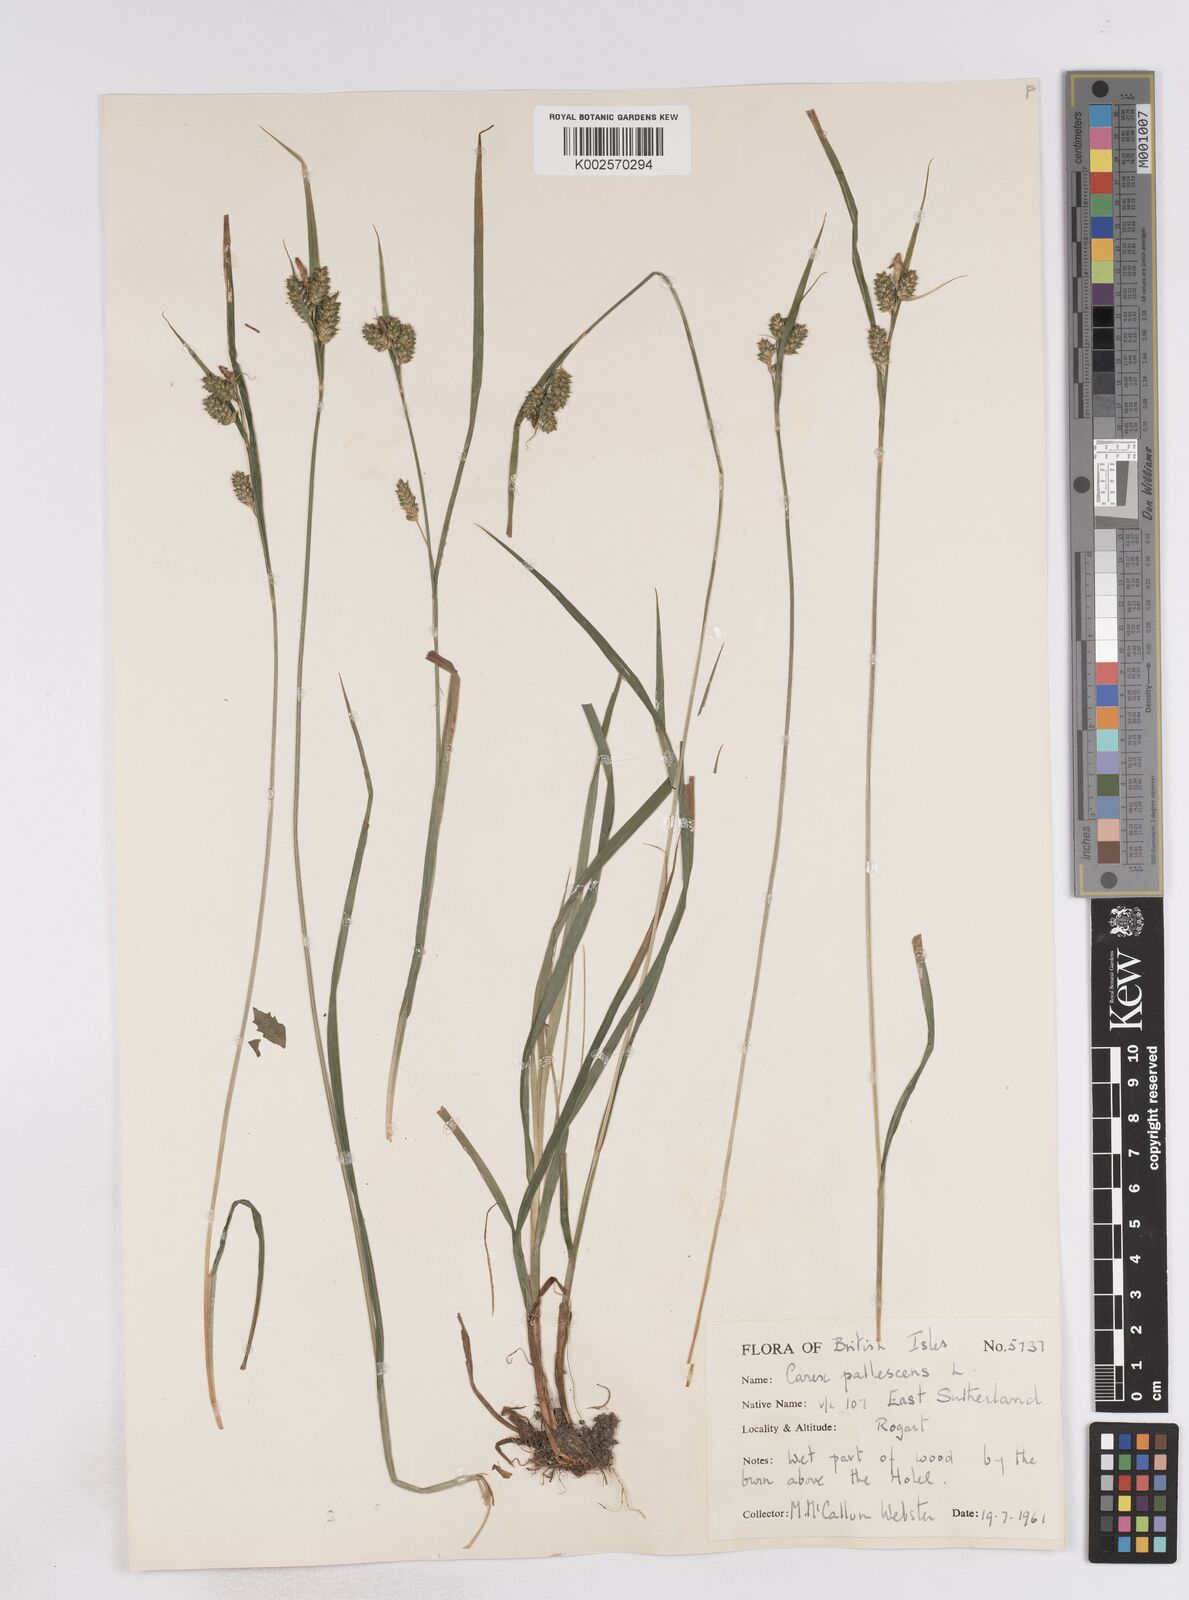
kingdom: Plantae
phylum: Tracheophyta
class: Liliopsida
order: Poales
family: Cyperaceae
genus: Carex
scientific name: Carex pallescens
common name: Pale sedge
